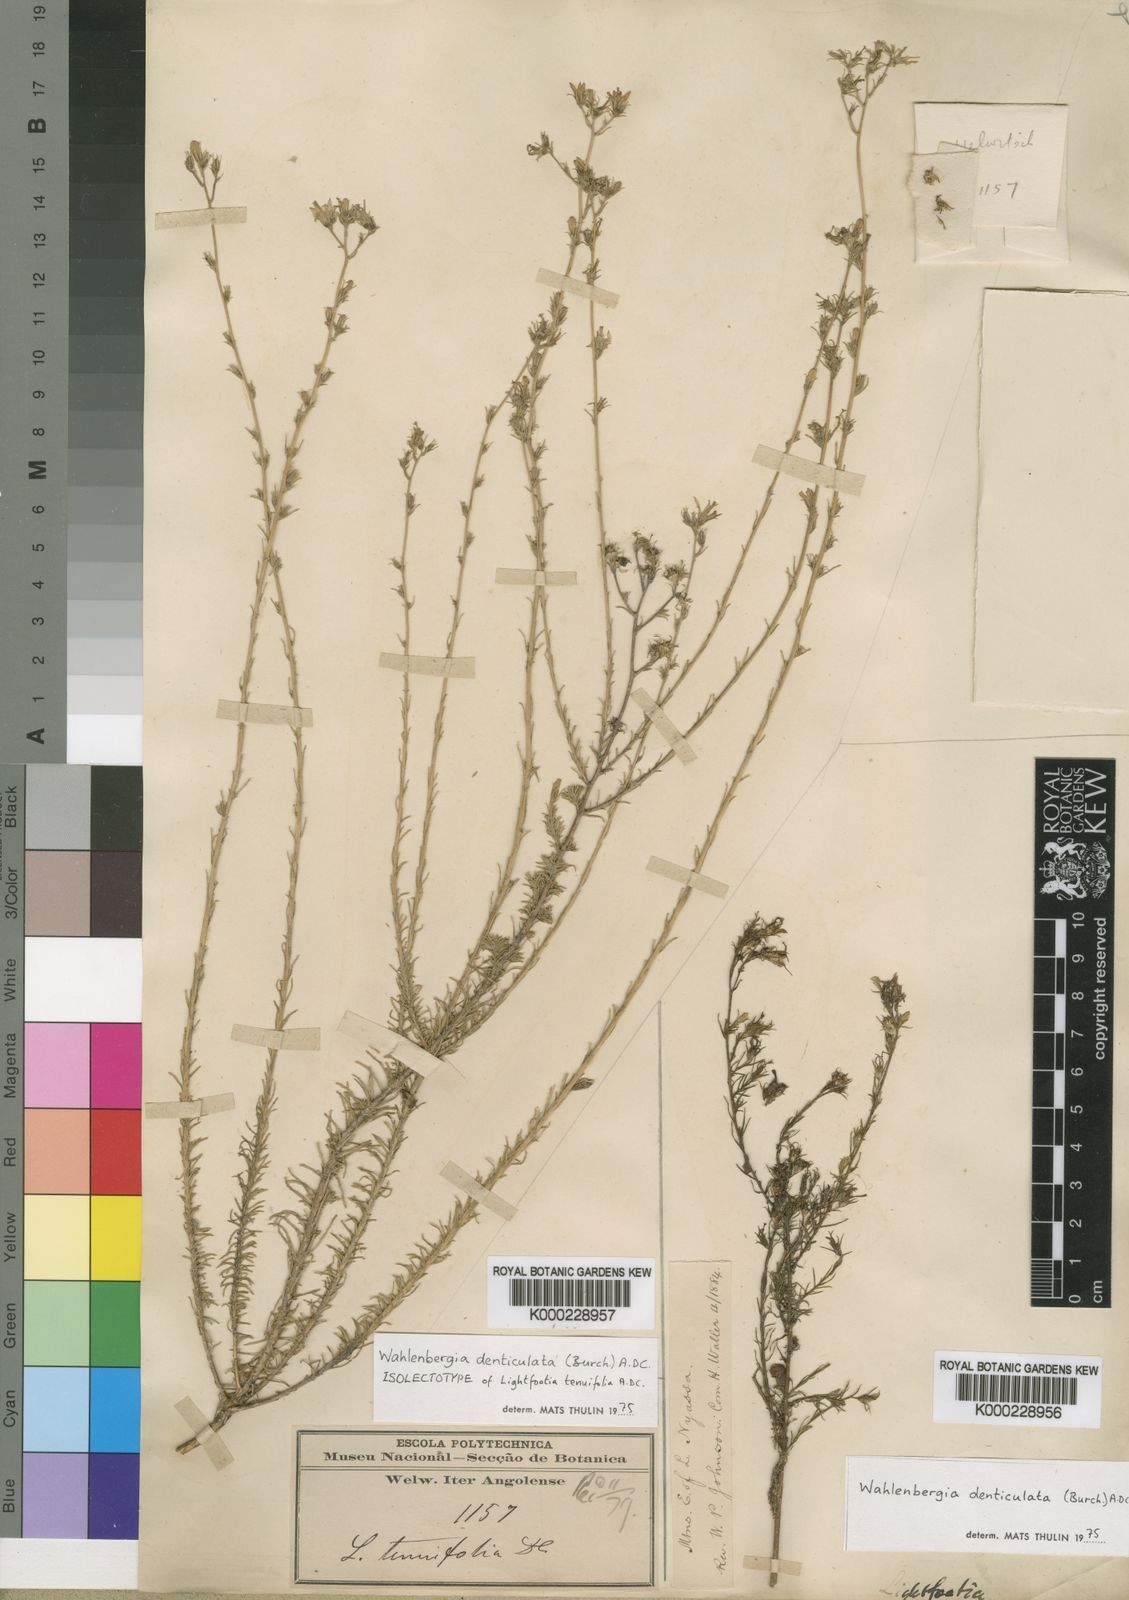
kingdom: Plantae
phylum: Tracheophyta
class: Magnoliopsida
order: Asterales
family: Campanulaceae
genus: Wahlenbergia
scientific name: Wahlenbergia denticulata
